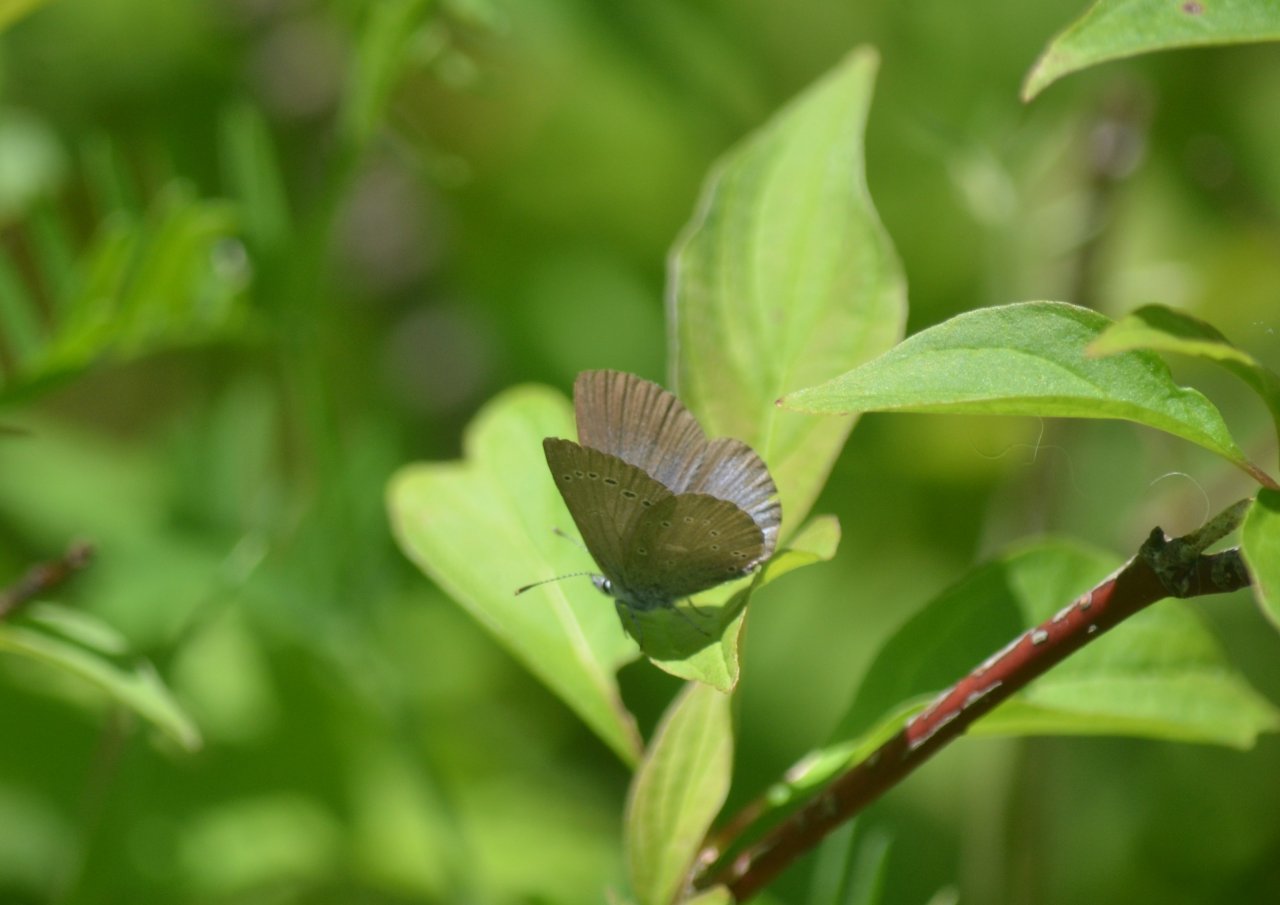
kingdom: Animalia
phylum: Arthropoda
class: Insecta
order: Lepidoptera
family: Lycaenidae
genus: Glaucopsyche
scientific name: Glaucopsyche lygdamus
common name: Silvery Blue
